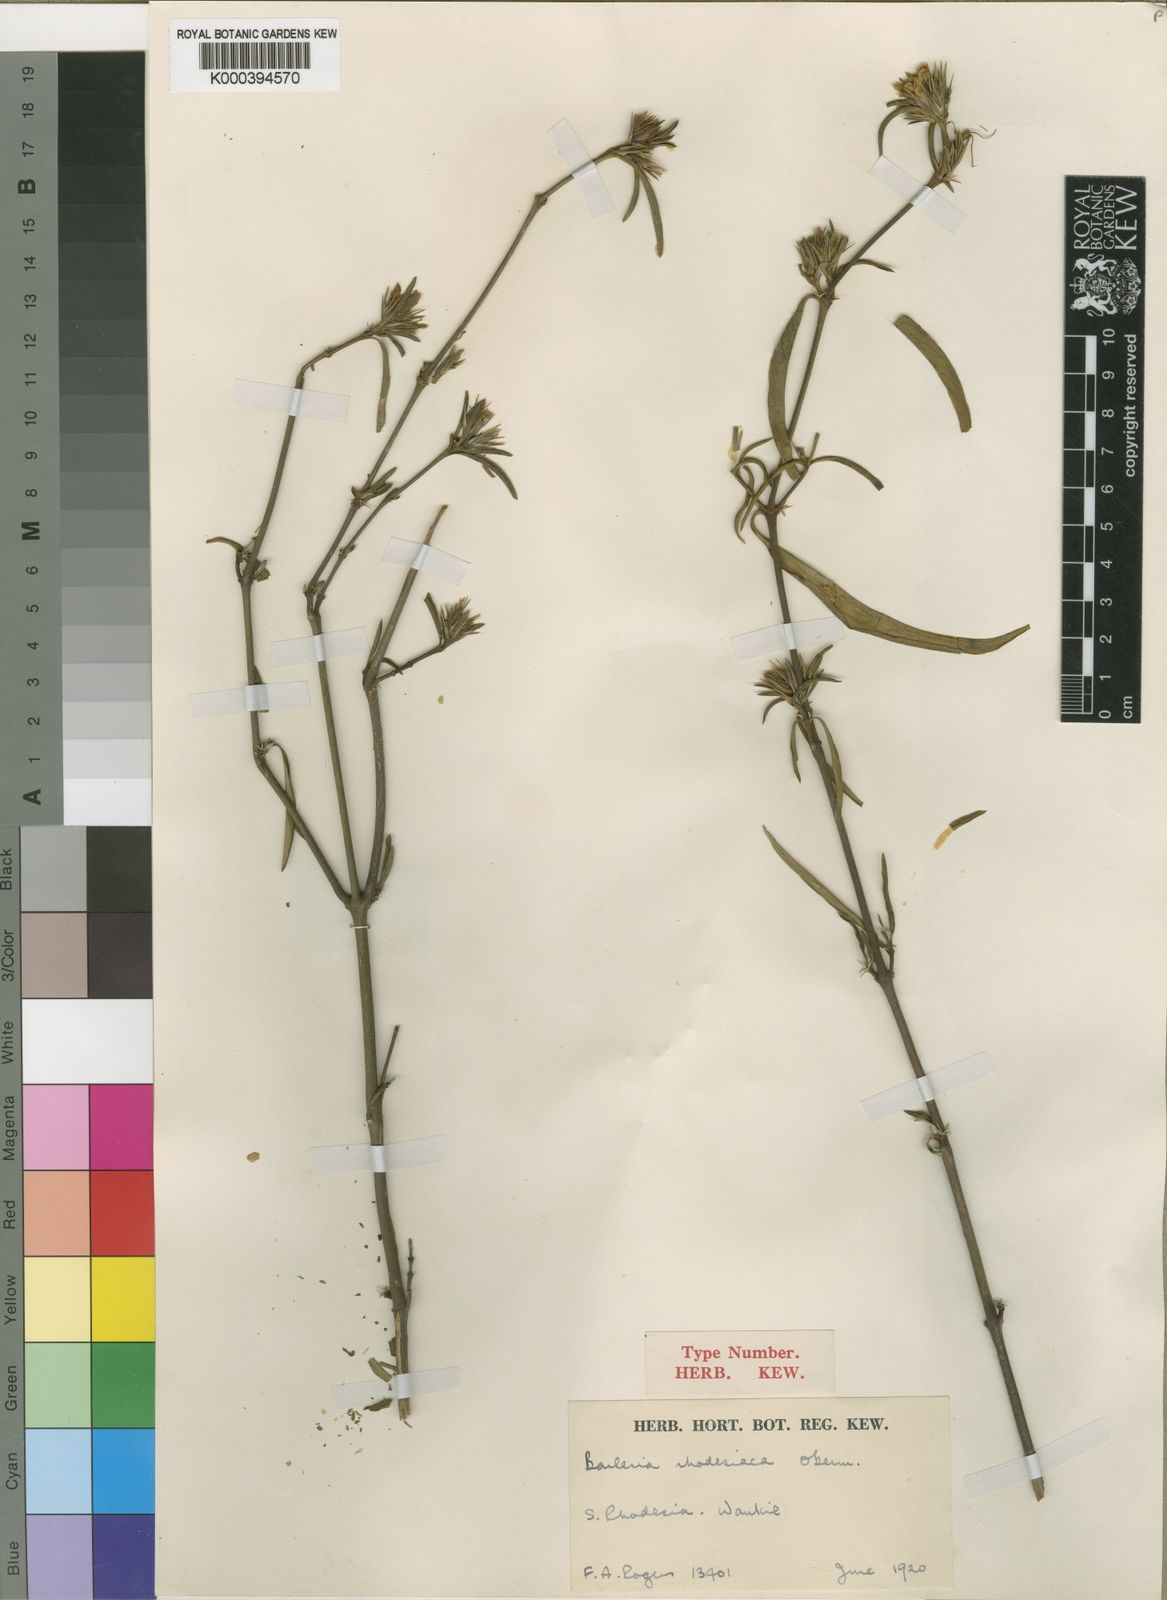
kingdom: Plantae
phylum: Tracheophyta
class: Magnoliopsida
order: Lamiales
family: Acanthaceae
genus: Barleria
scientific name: Barleria rhodesiaca
